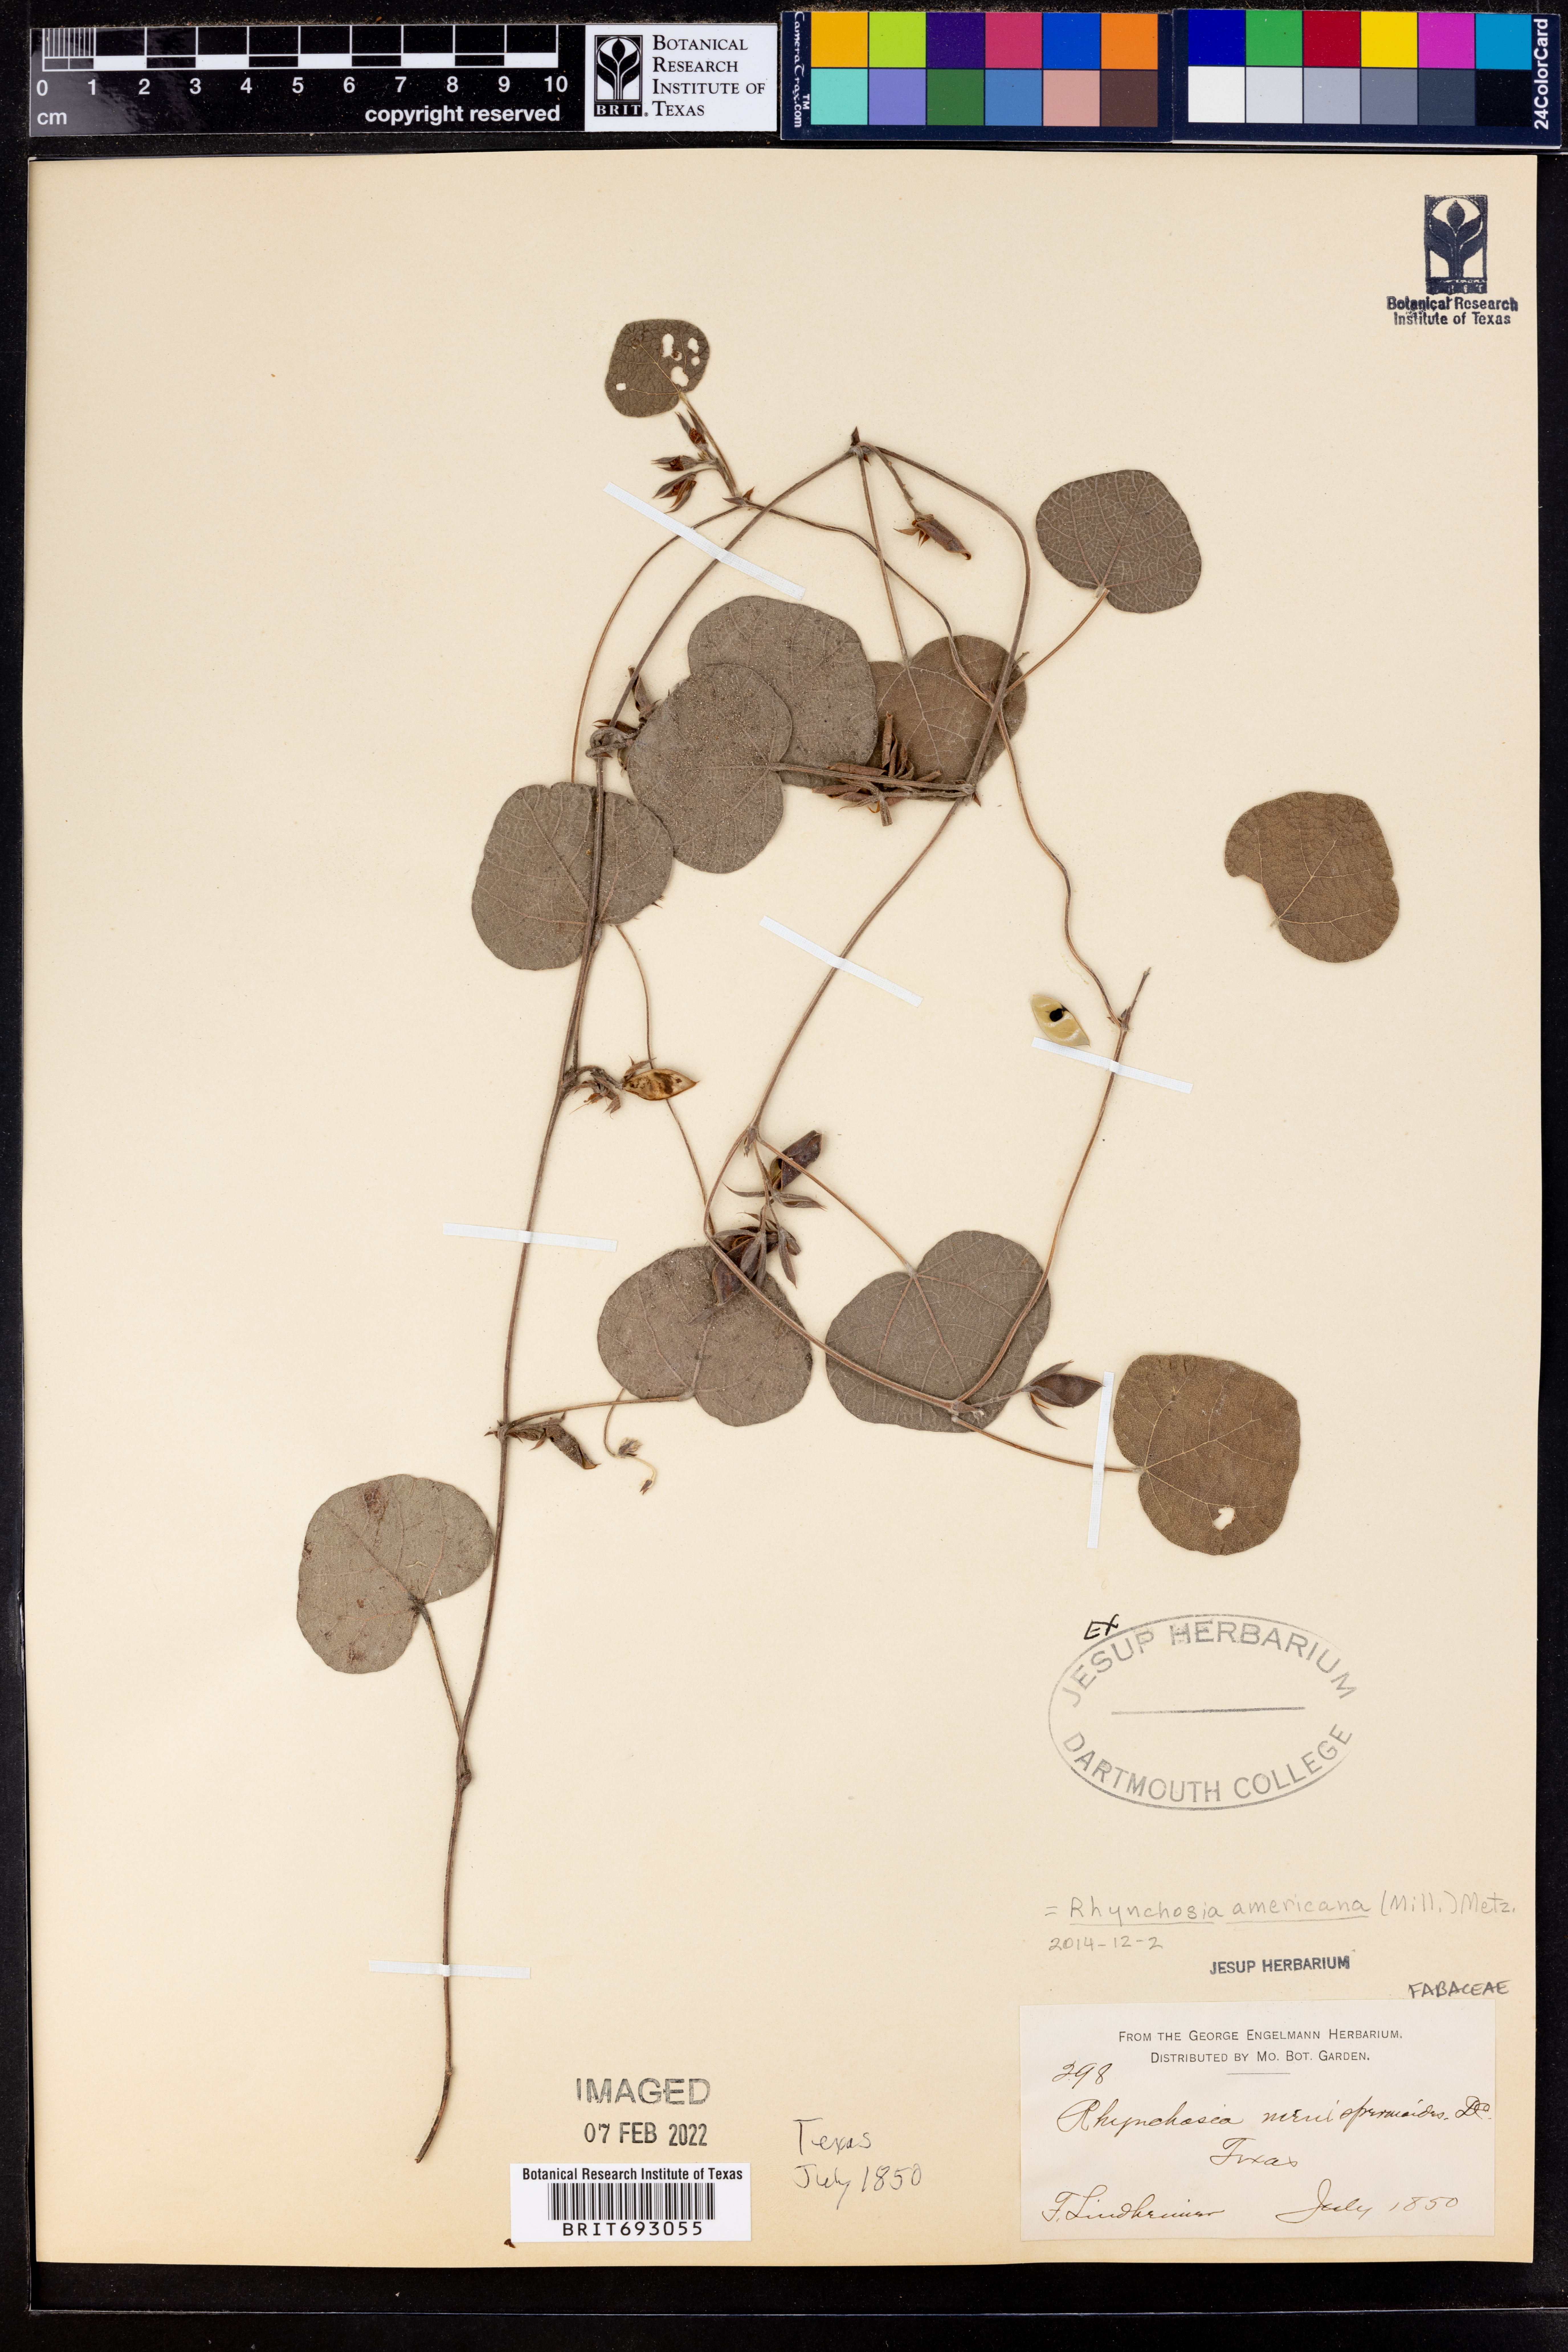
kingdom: Plantae
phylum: Tracheophyta
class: Magnoliopsida
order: Fabales
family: Fabaceae
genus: Rhynchosia
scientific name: Rhynchosia americana
